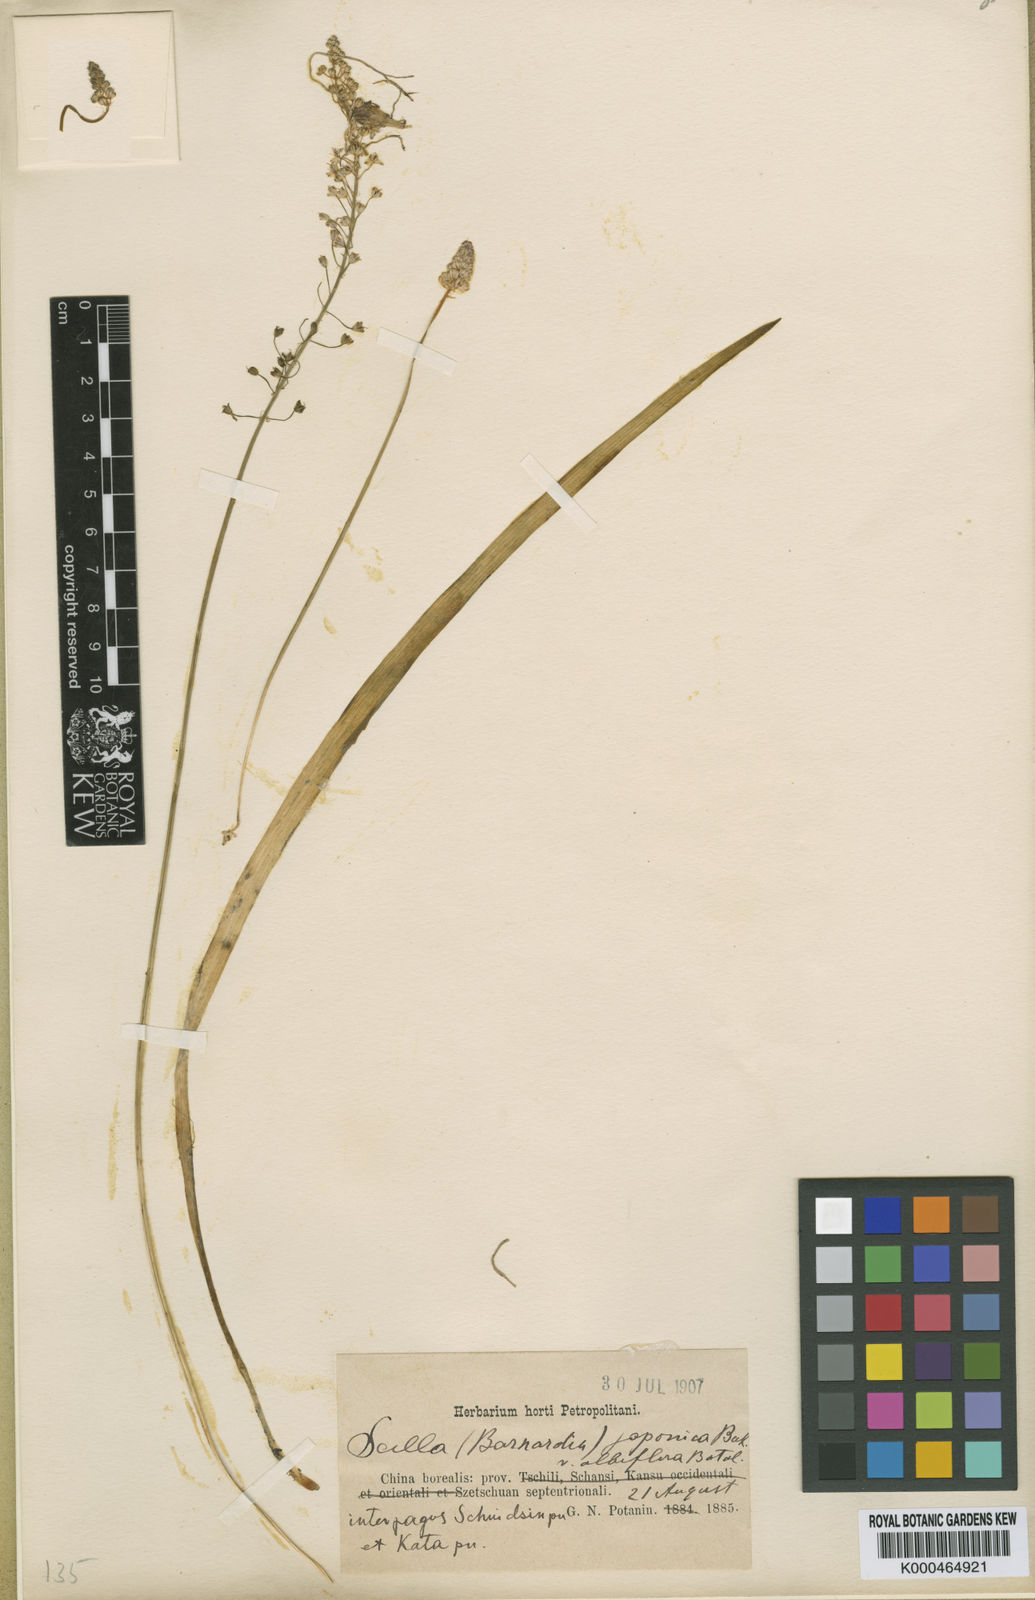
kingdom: Plantae
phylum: Tracheophyta
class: Liliopsida
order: Asparagales
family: Asparagaceae
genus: Barnardia
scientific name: Barnardia japonica
